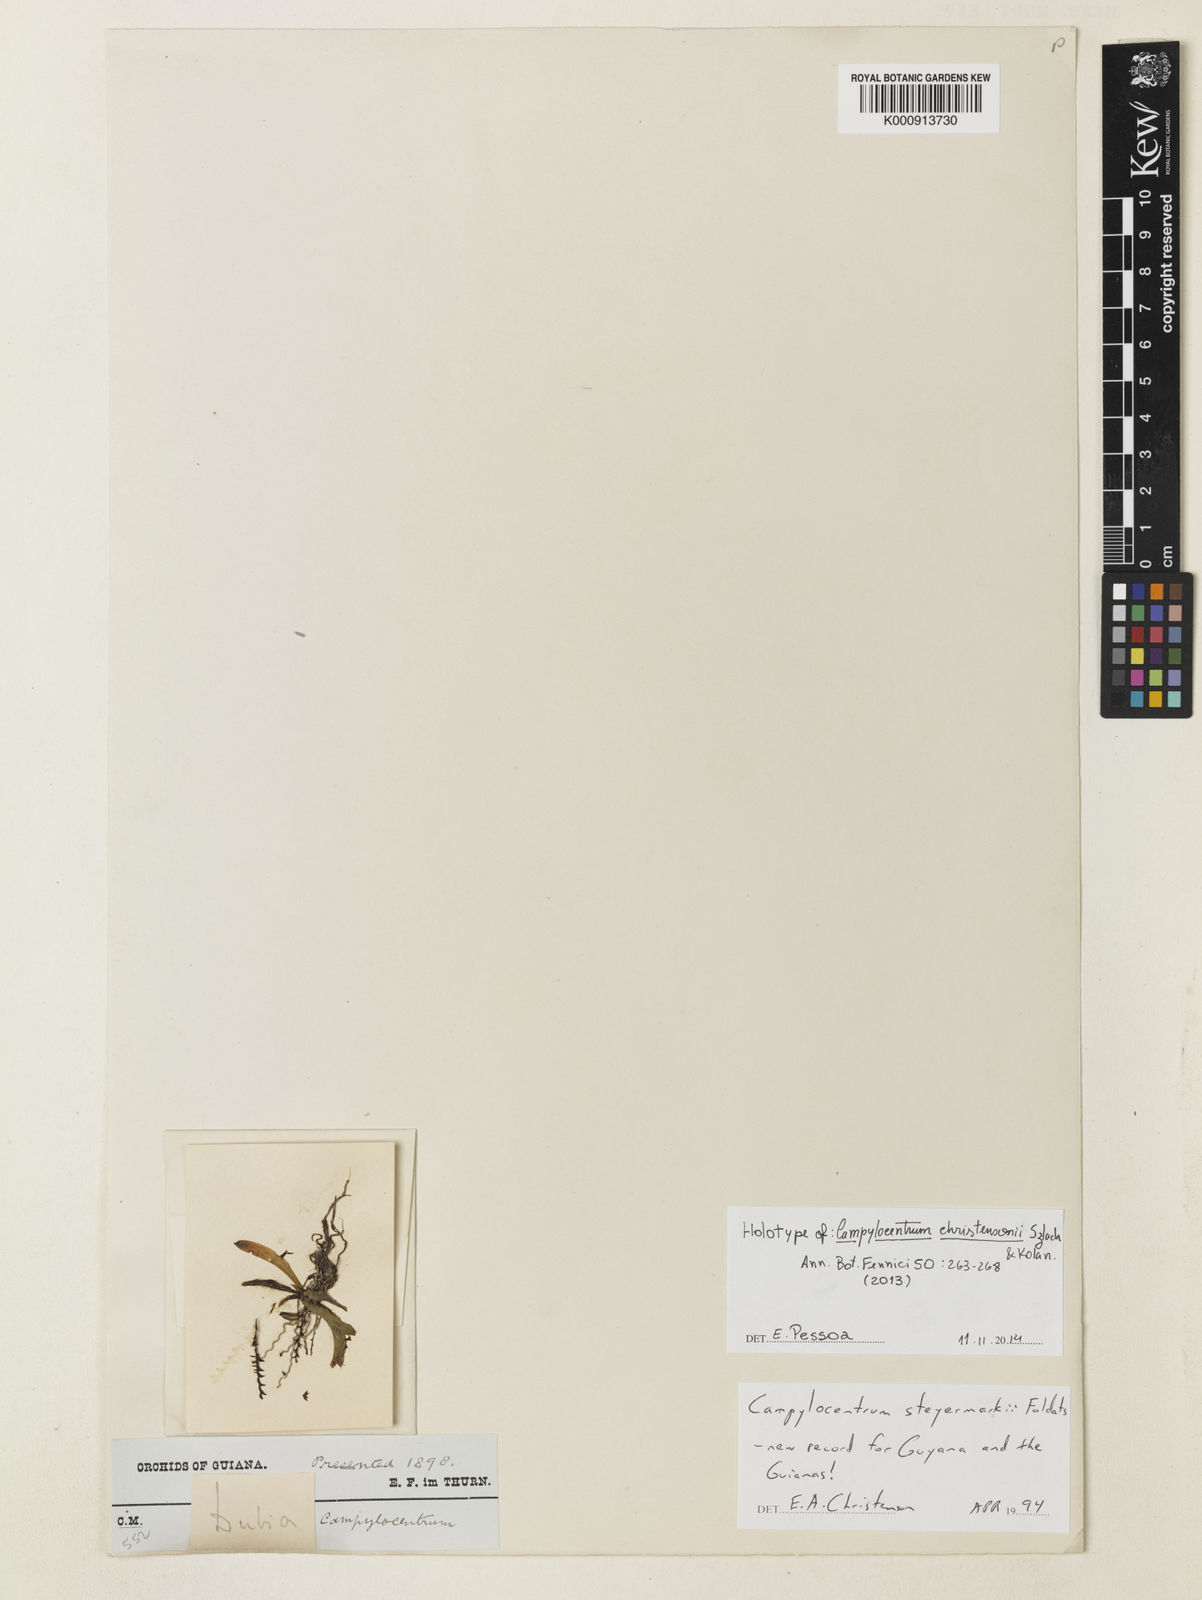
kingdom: Plantae
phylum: Tracheophyta
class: Liliopsida
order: Asparagales
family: Orchidaceae
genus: Campylocentrum
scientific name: Campylocentrum hondurense
